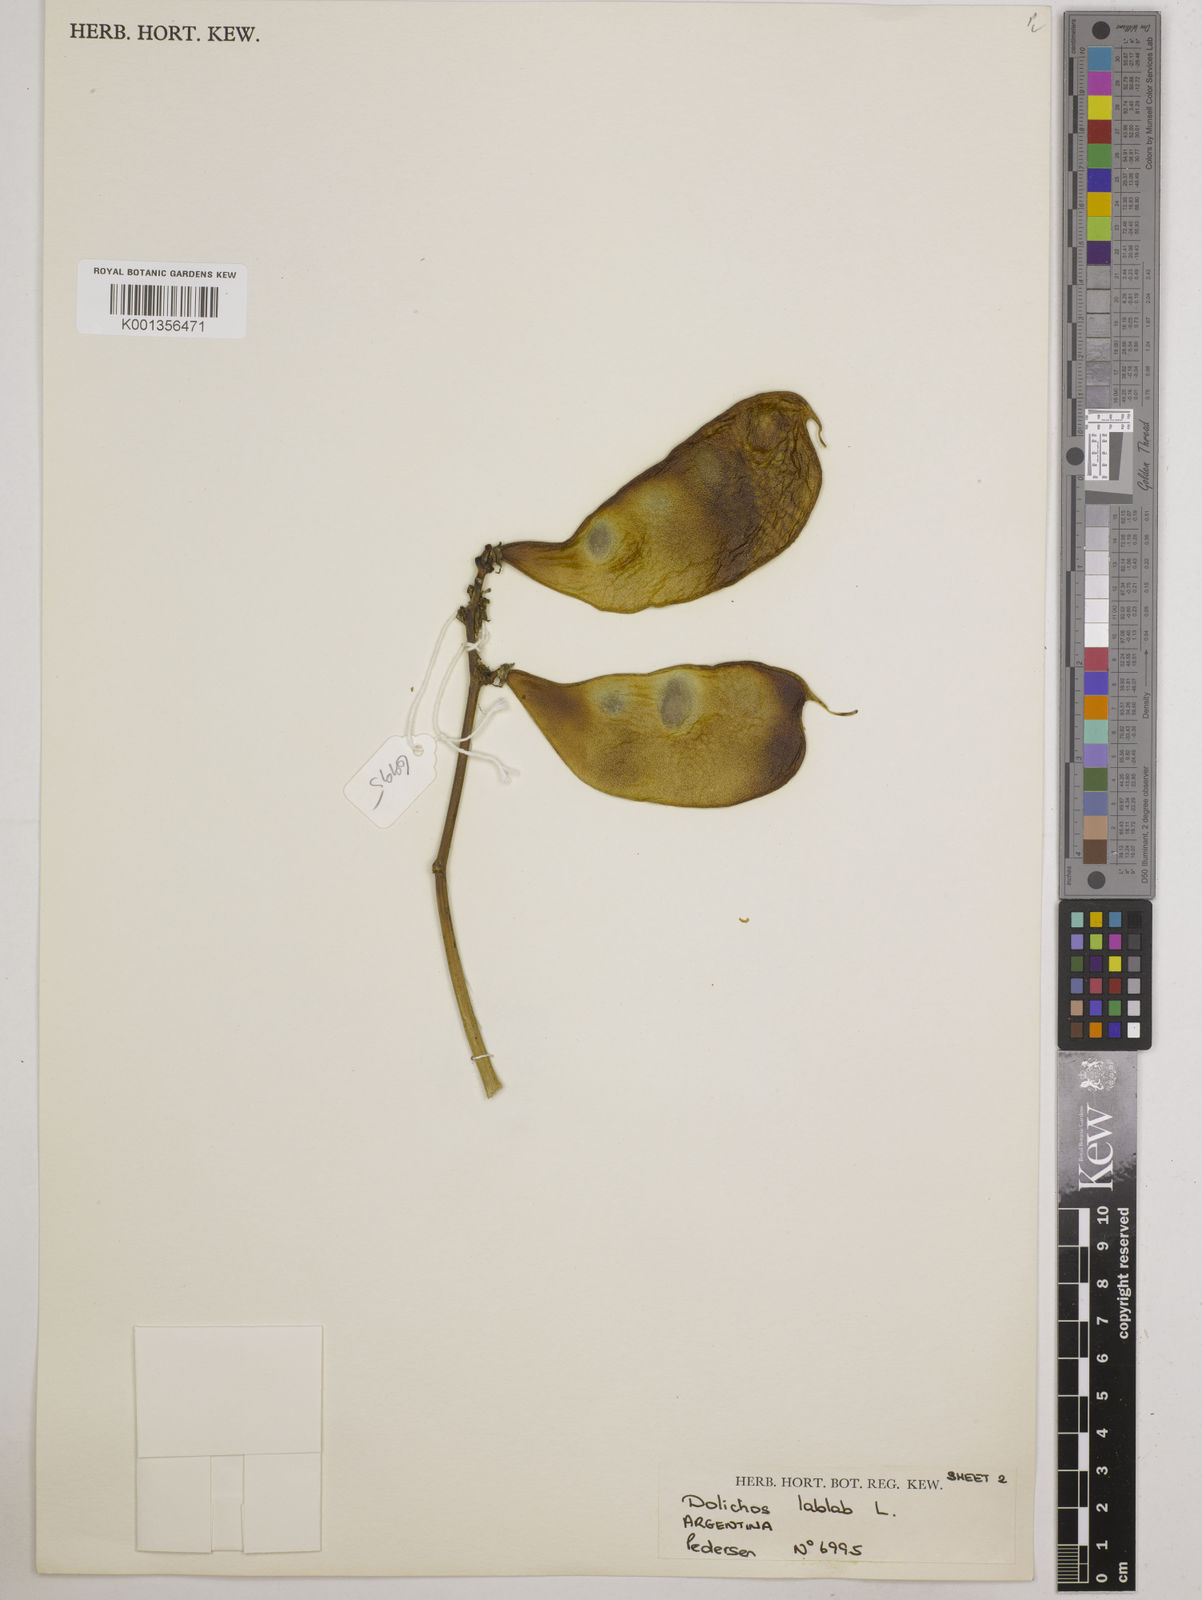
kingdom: Plantae
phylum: Tracheophyta
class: Magnoliopsida
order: Fabales
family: Fabaceae
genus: Lablab
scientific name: Lablab purpureus
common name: Lablab-bean
